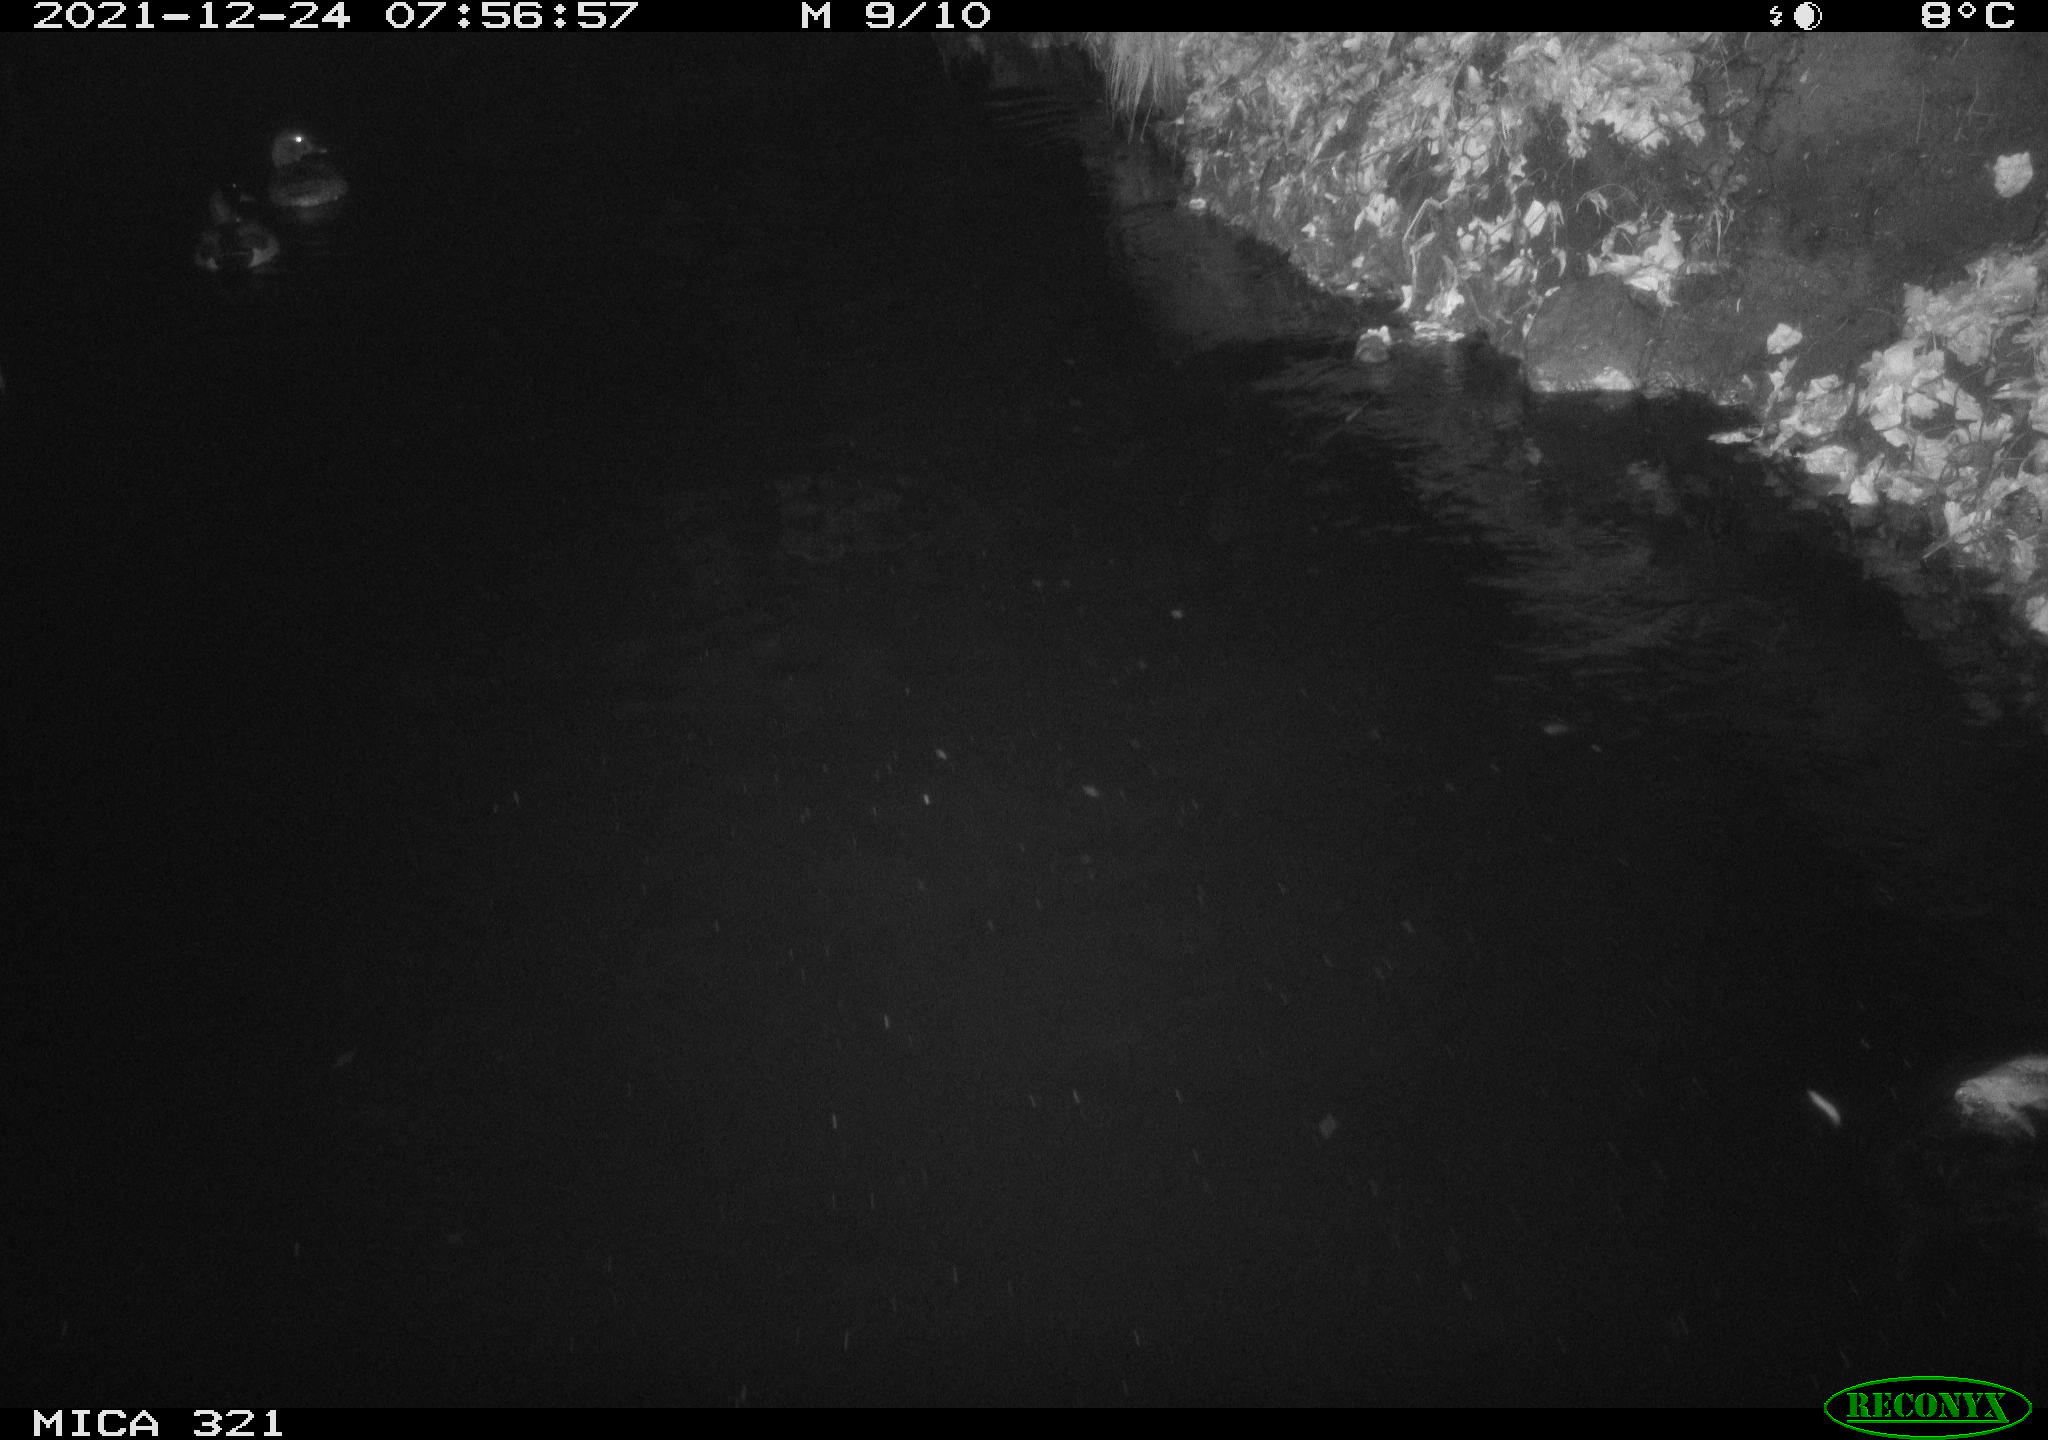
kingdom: Animalia
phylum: Chordata
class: Aves
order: Anseriformes
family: Anatidae
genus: Anas
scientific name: Anas
